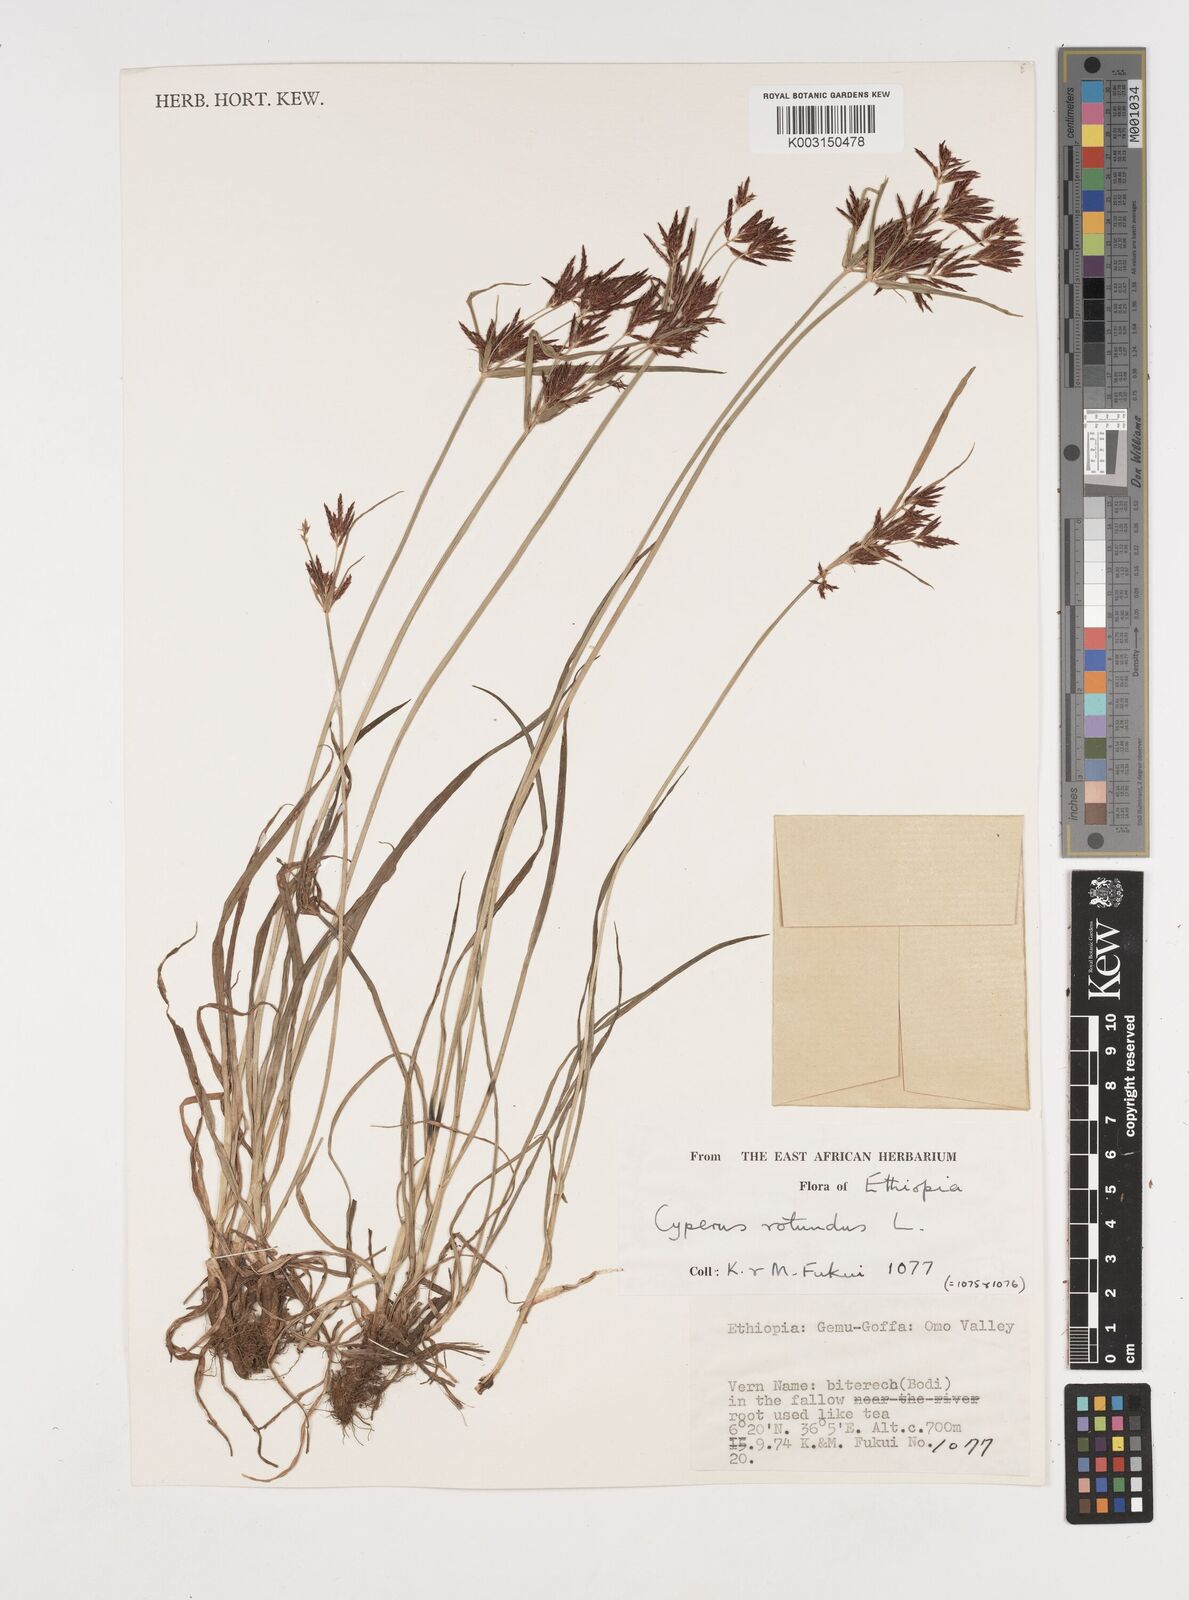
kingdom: Plantae
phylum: Tracheophyta
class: Liliopsida
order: Poales
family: Cyperaceae
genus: Cyperus
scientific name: Cyperus rotundus
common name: Nutgrass
